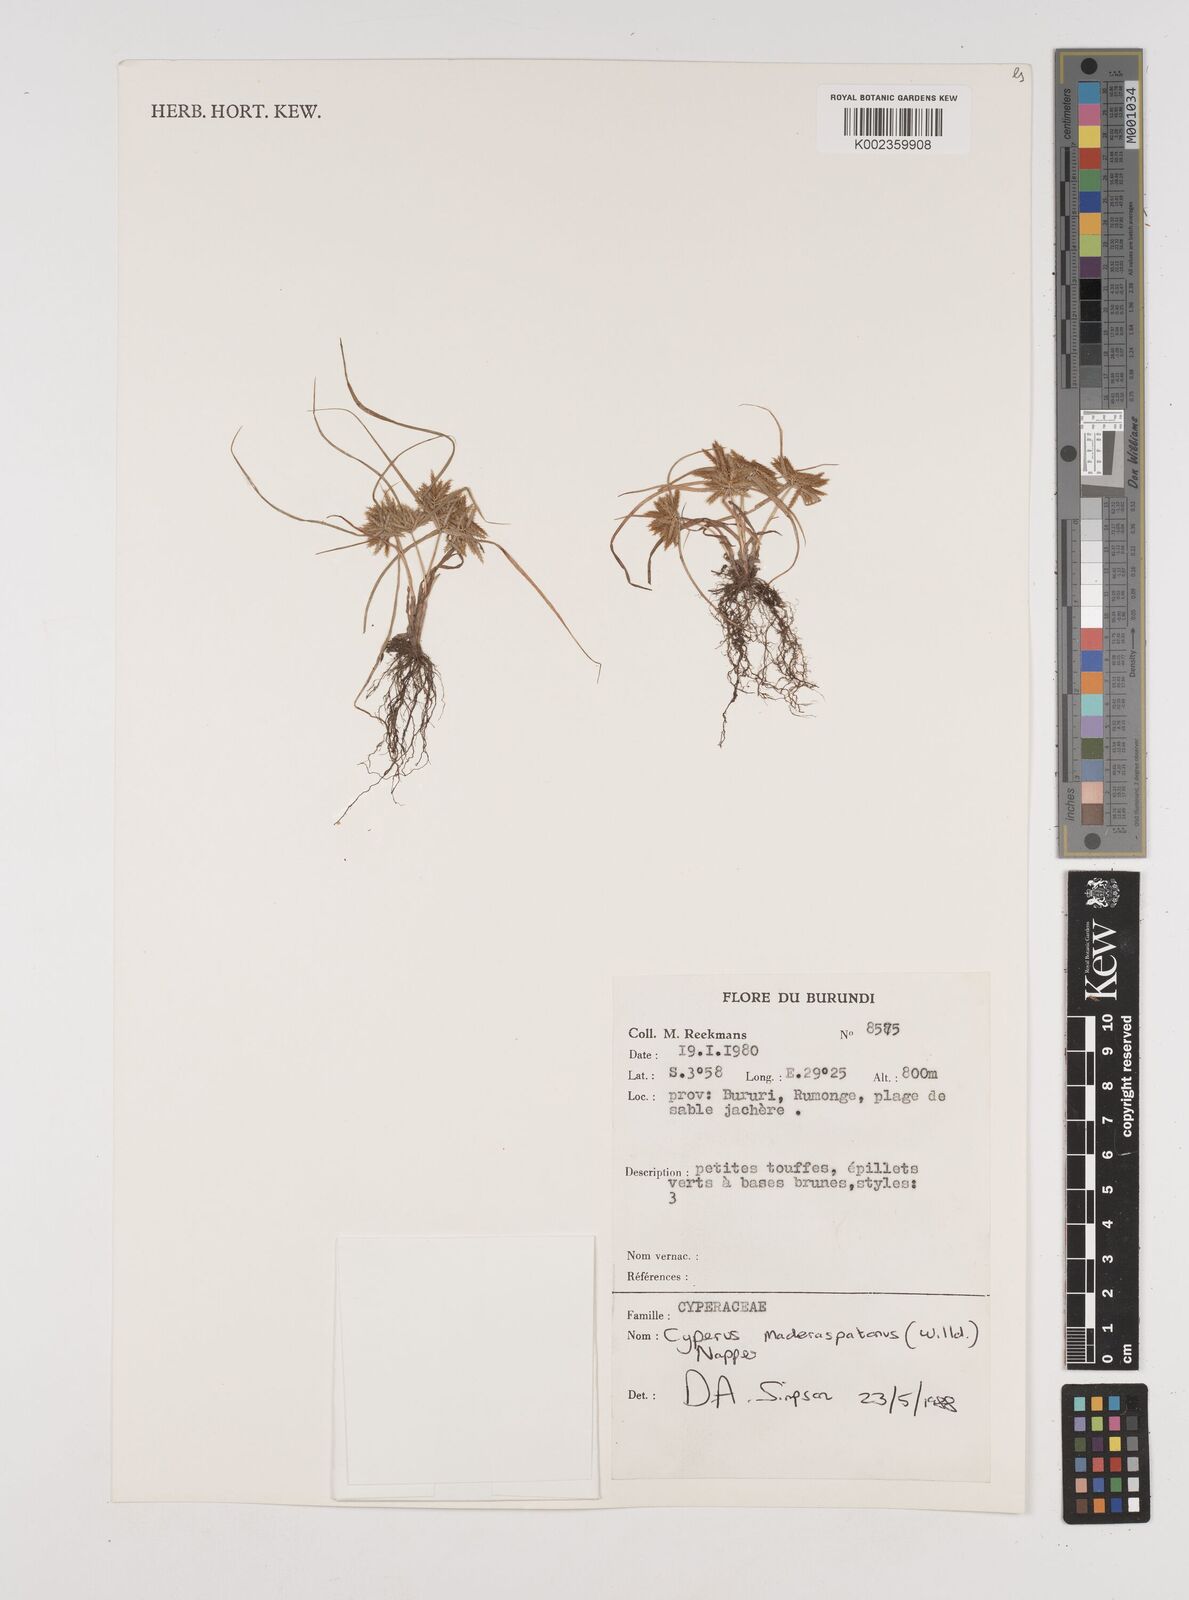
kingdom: Plantae
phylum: Tracheophyta
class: Liliopsida
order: Poales
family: Cyperaceae
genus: Cyperus
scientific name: Cyperus maderaspatanus
